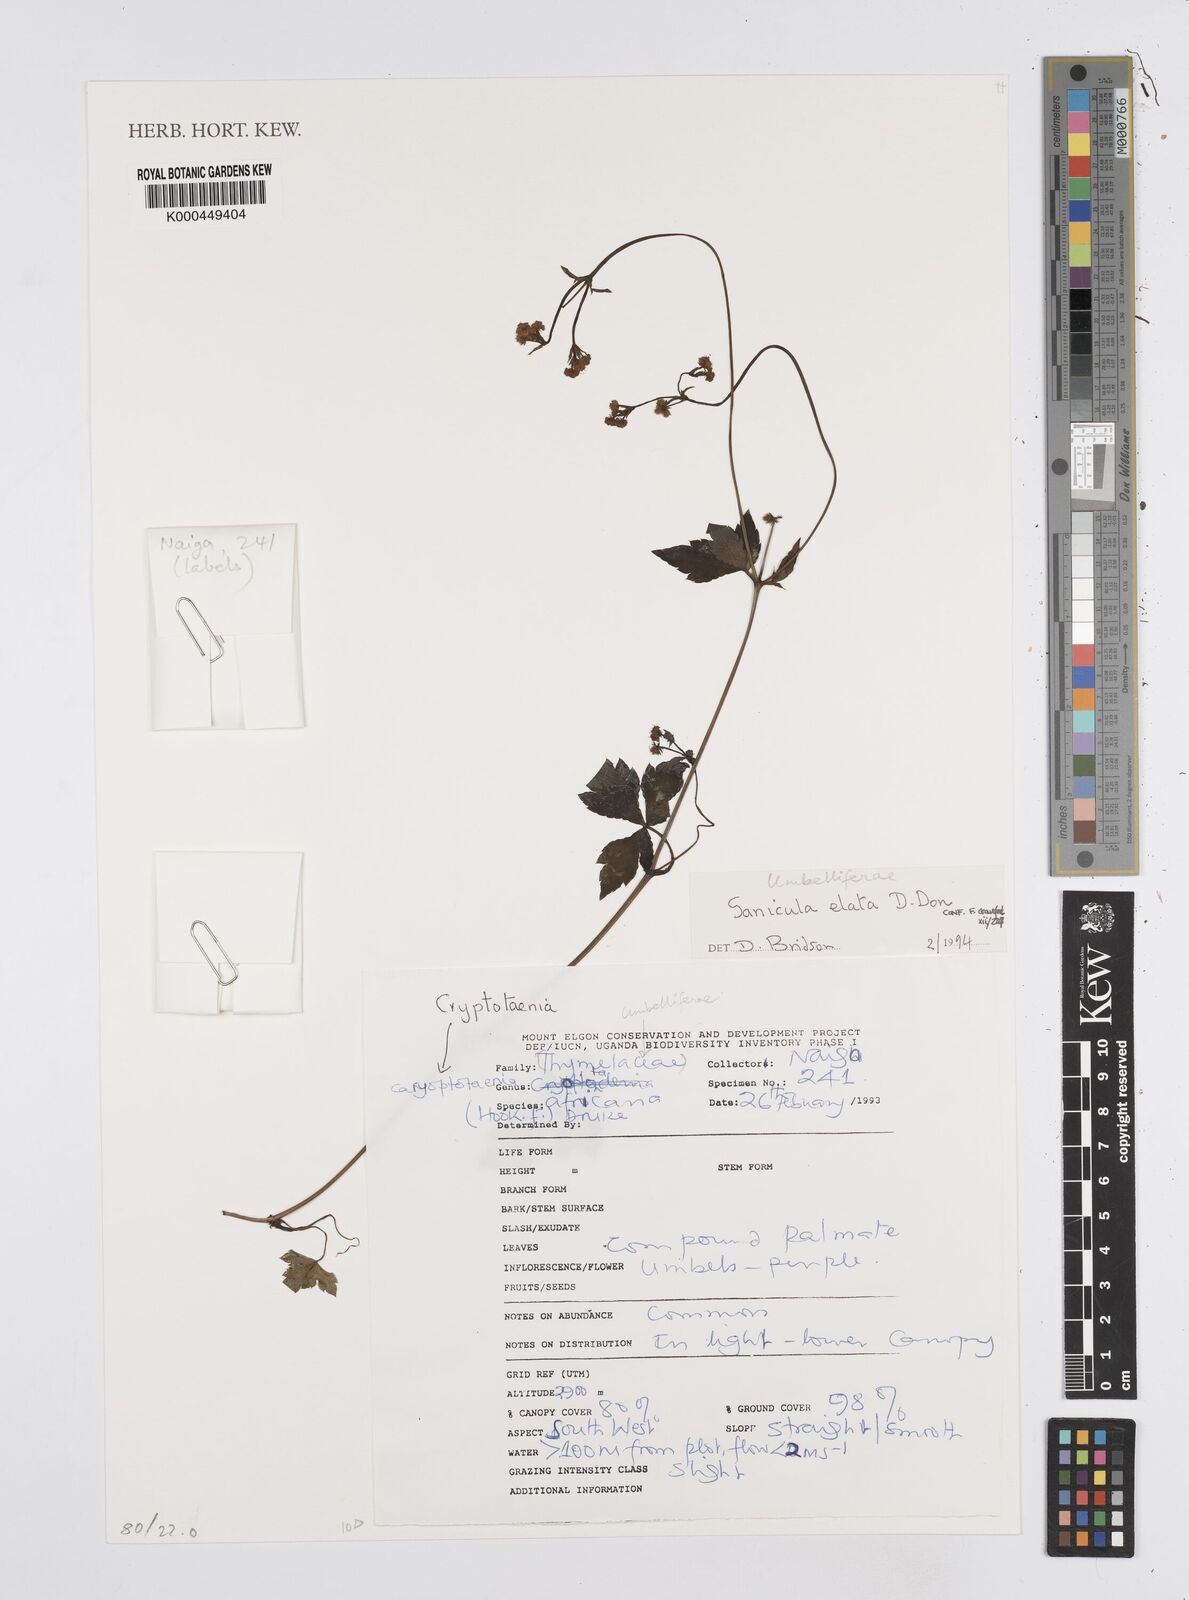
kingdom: Plantae
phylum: Tracheophyta
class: Magnoliopsida
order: Apiales
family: Apiaceae
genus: Sanicula
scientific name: Sanicula elata
